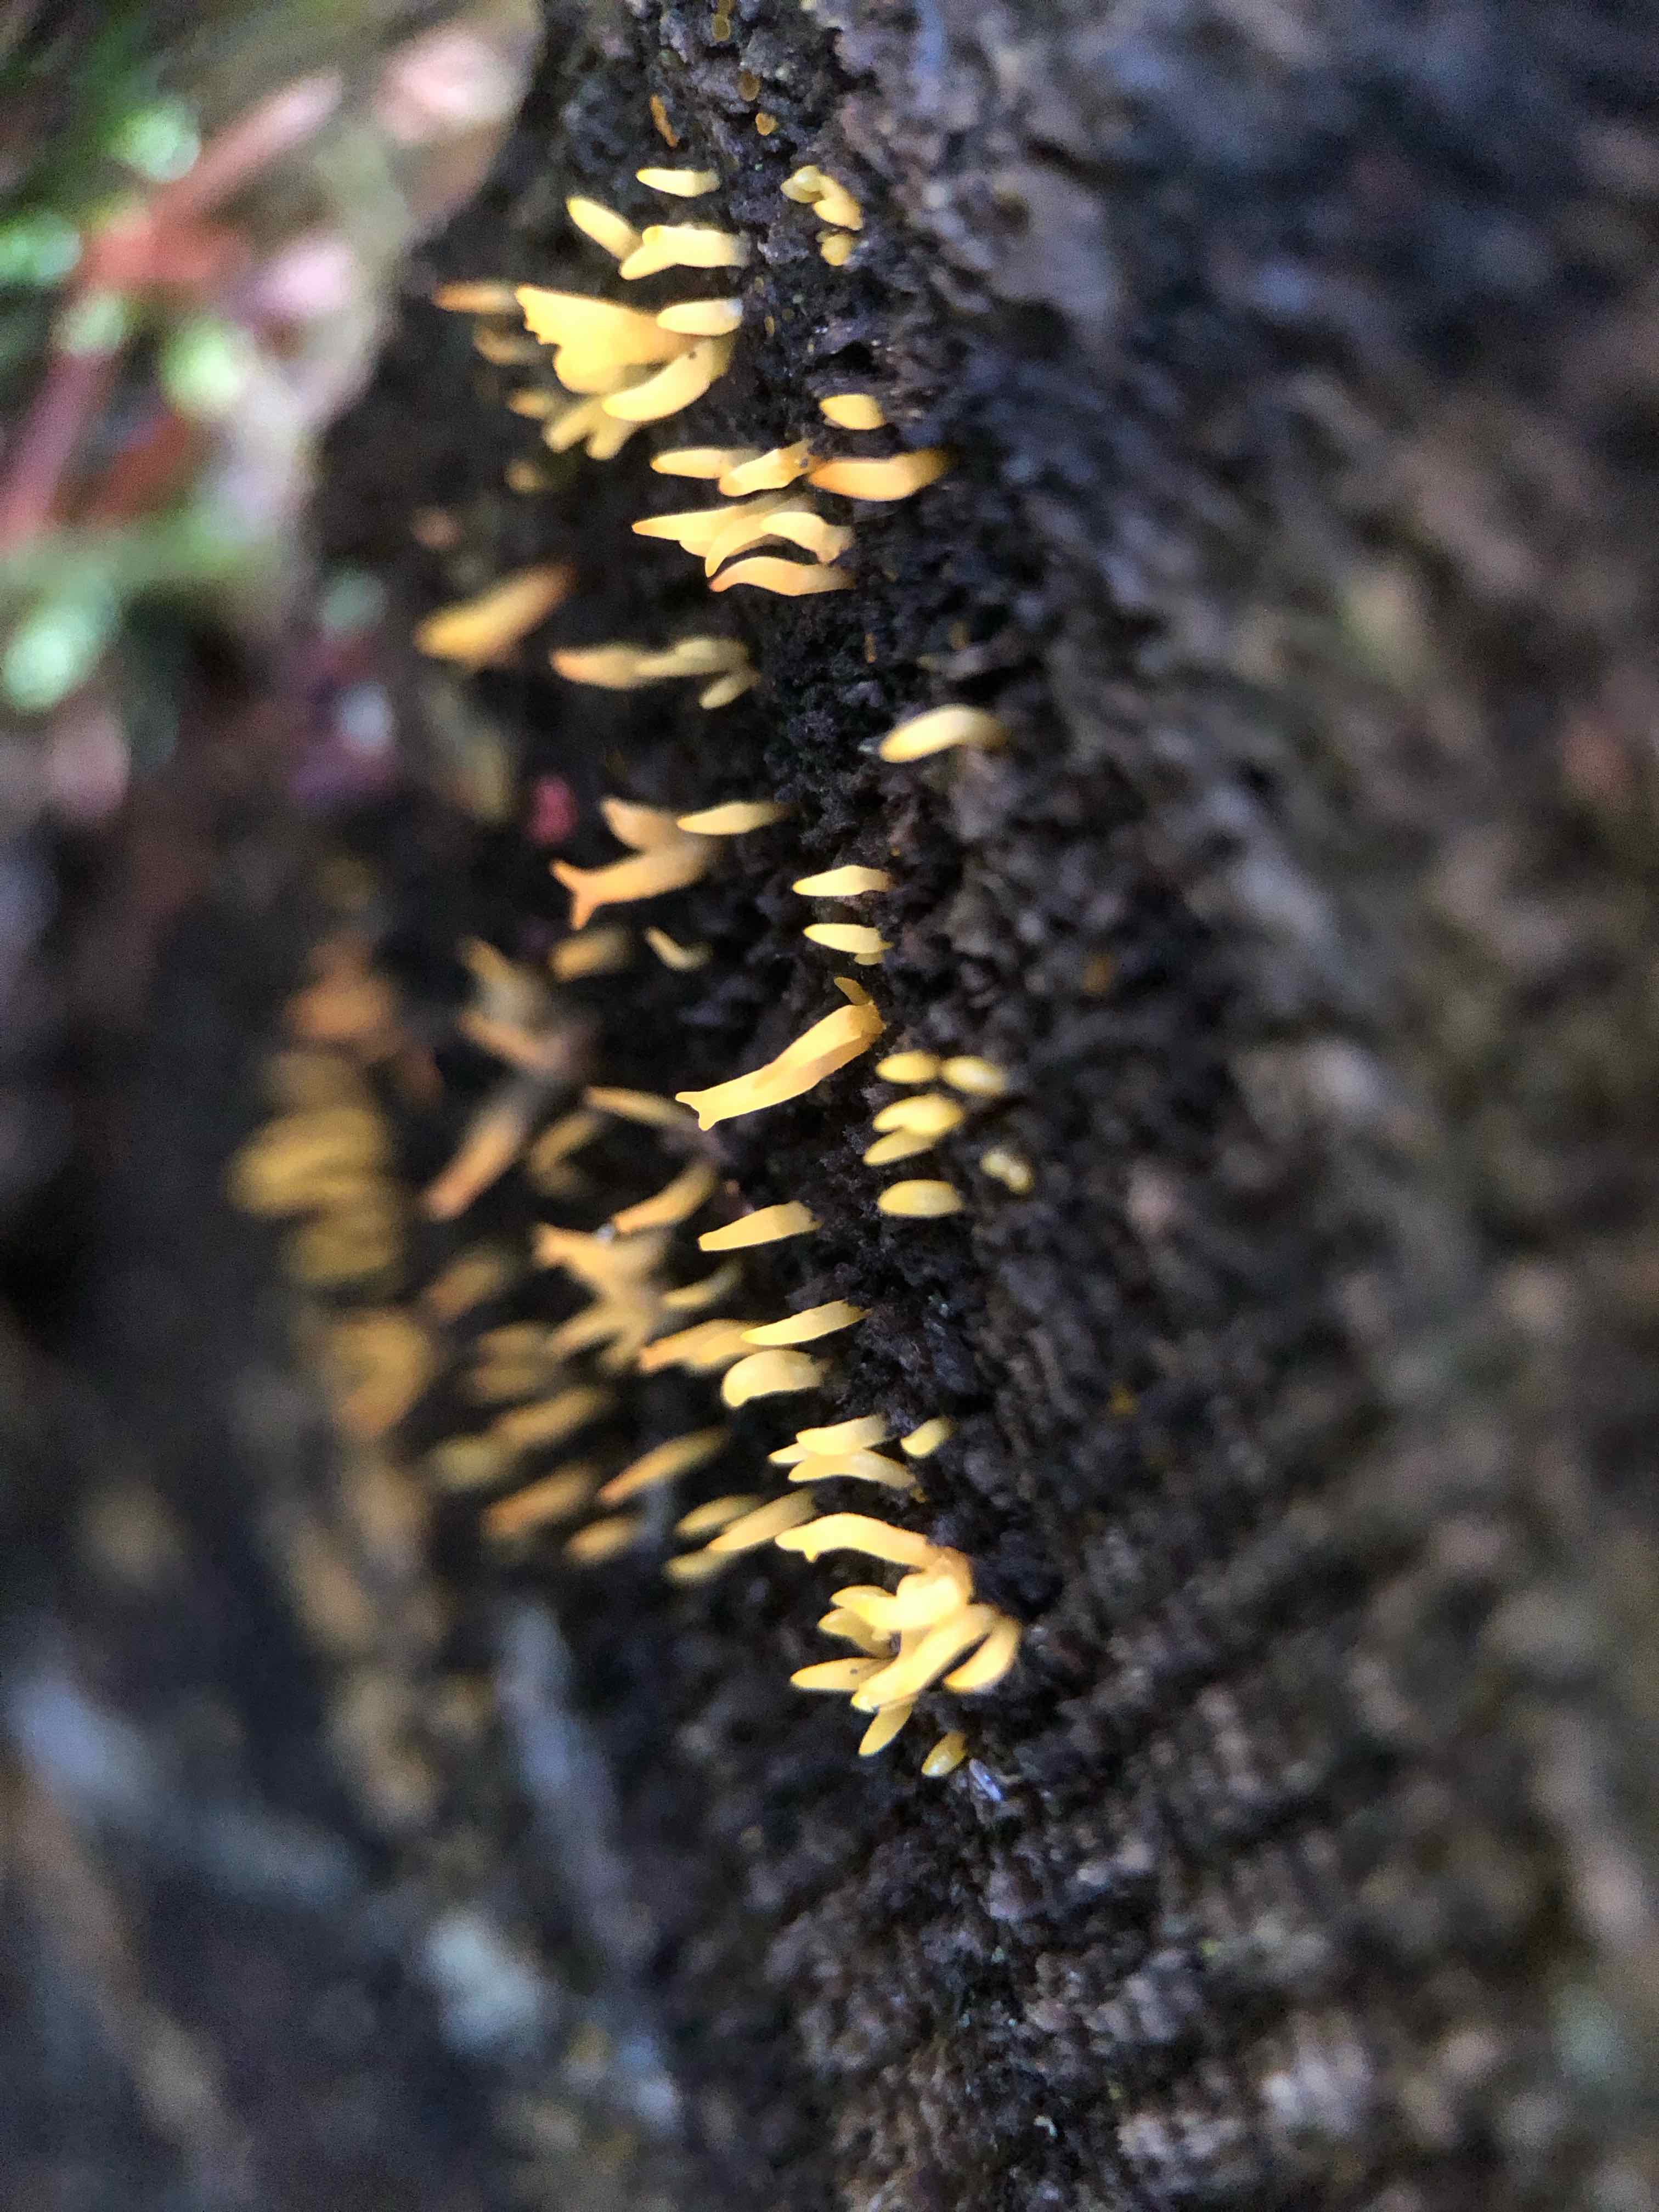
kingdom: Fungi
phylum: Basidiomycota
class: Dacrymycetes
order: Dacrymycetales
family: Dacrymycetaceae
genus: Calocera
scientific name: Calocera cornea
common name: liden guldgaffel
